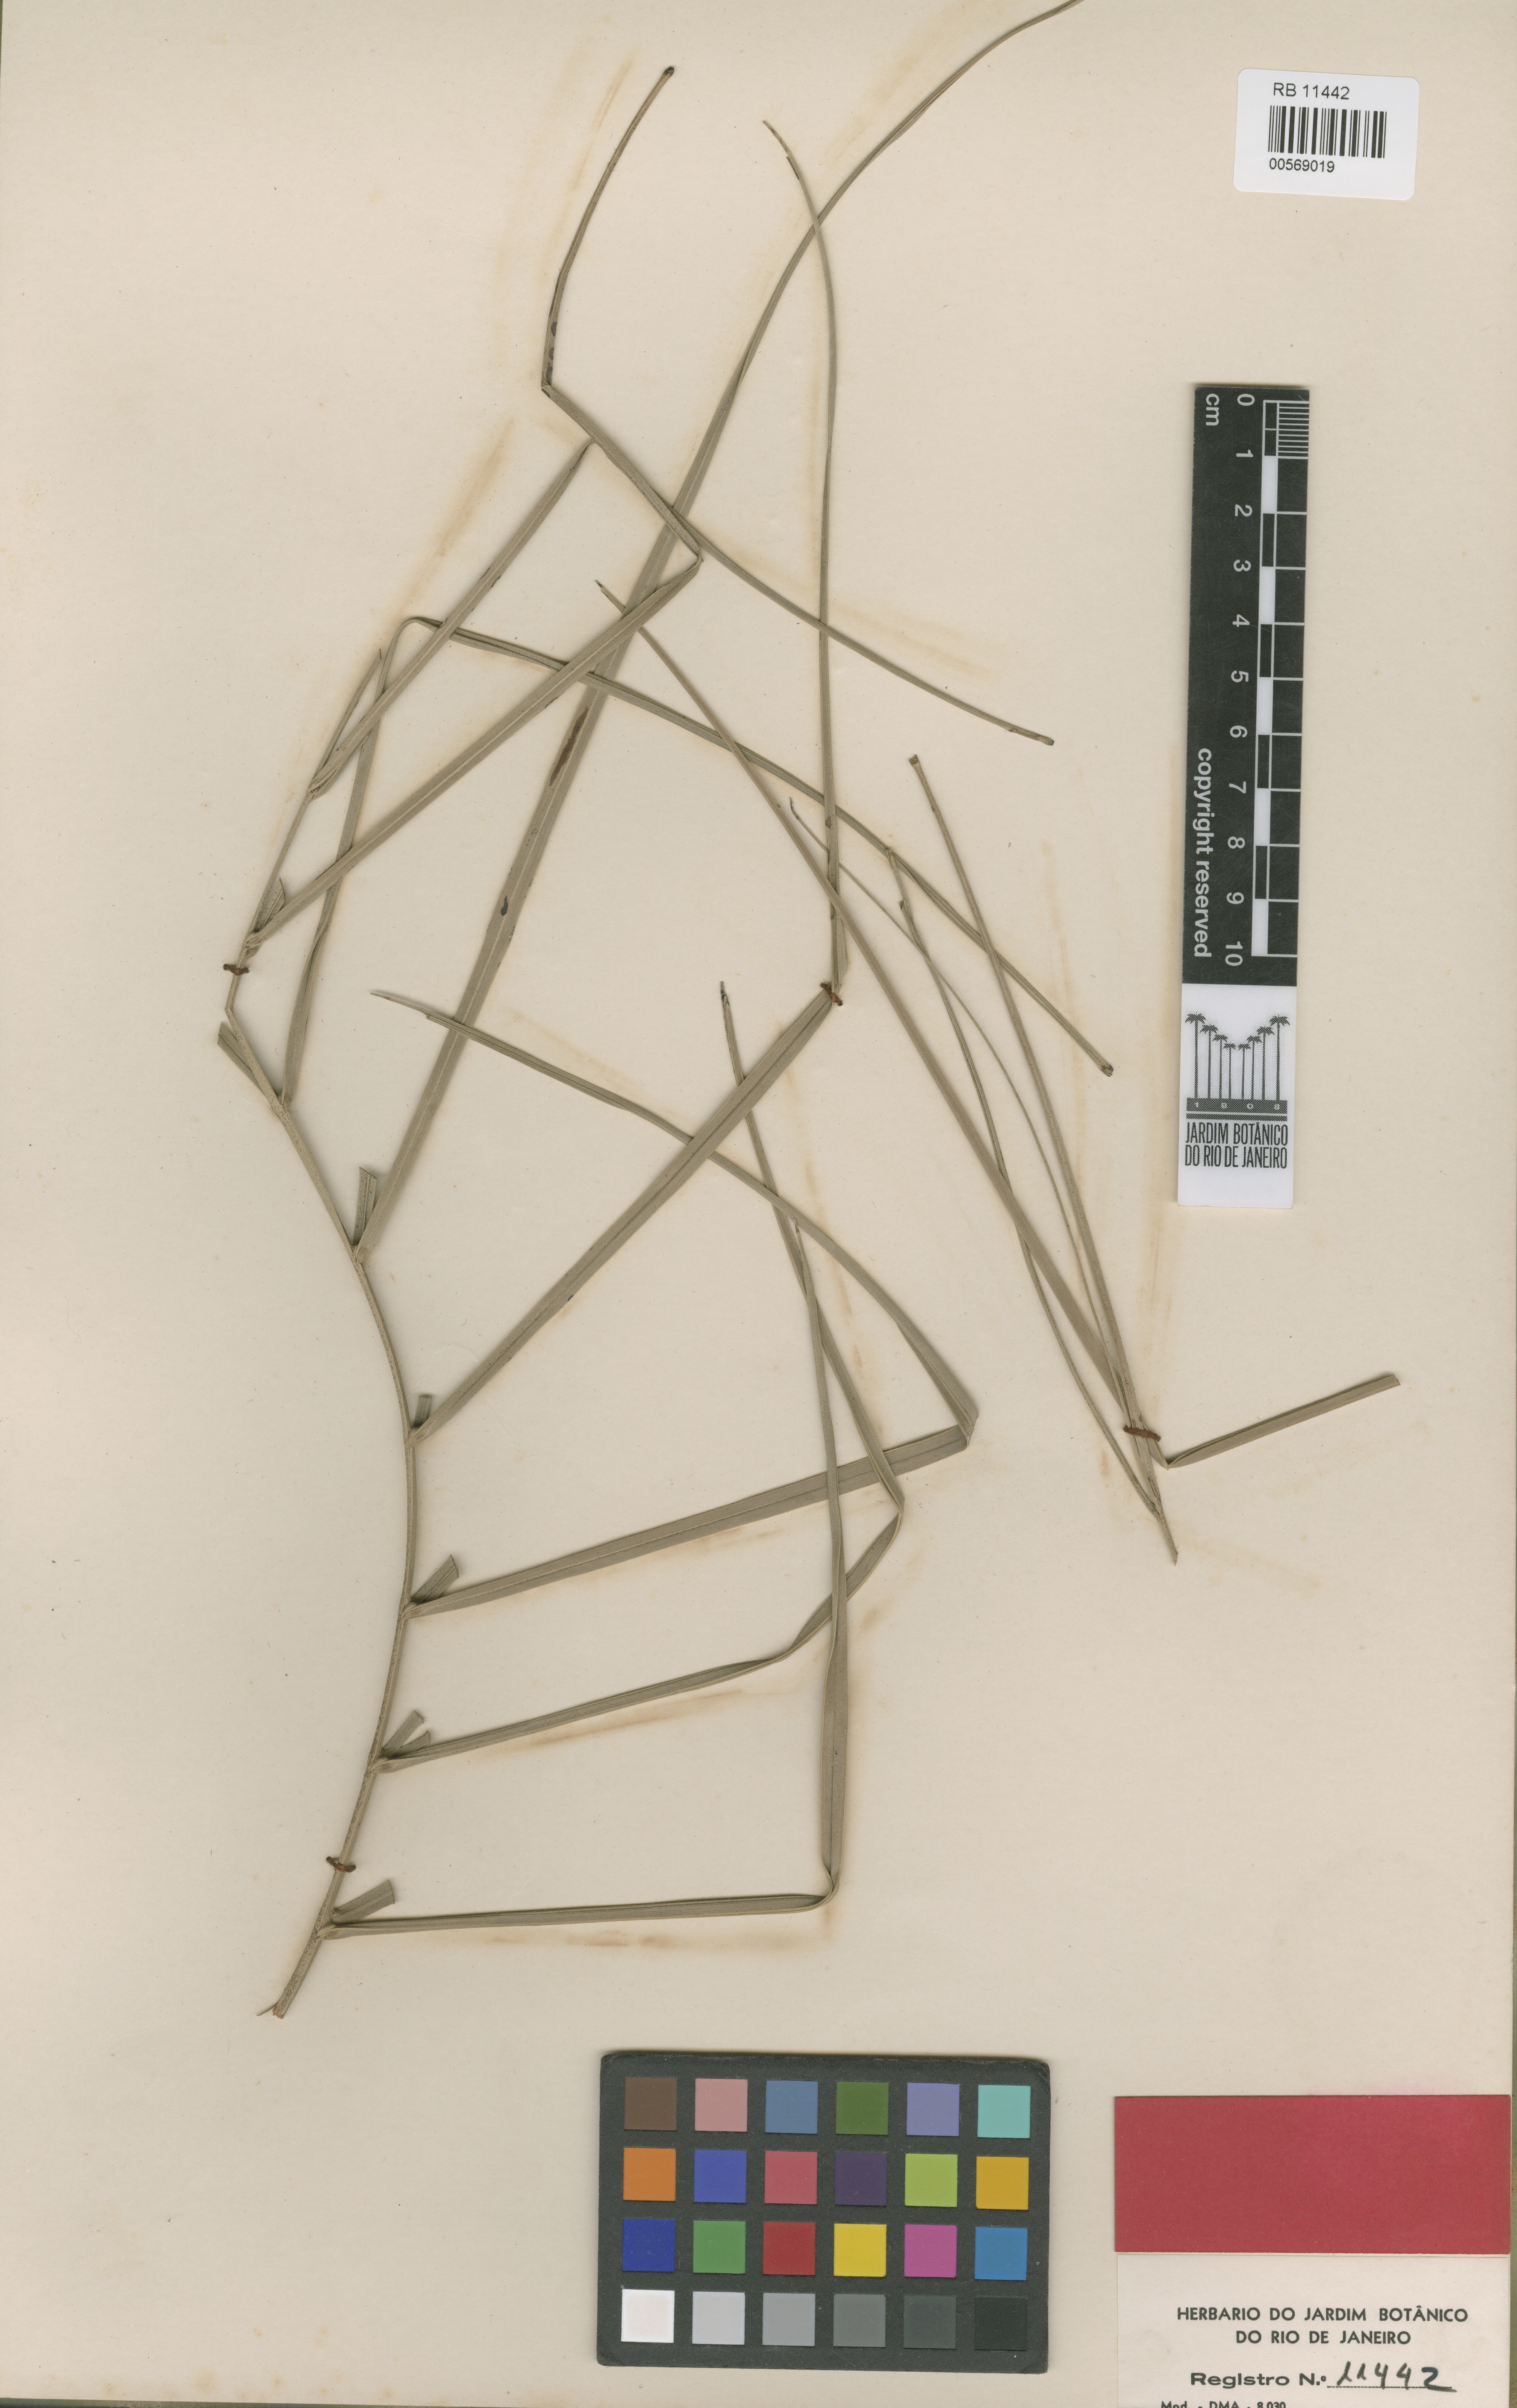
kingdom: Plantae
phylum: Tracheophyta
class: Liliopsida
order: Arecales
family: Arecaceae
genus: Butia
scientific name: Butia microspadix
